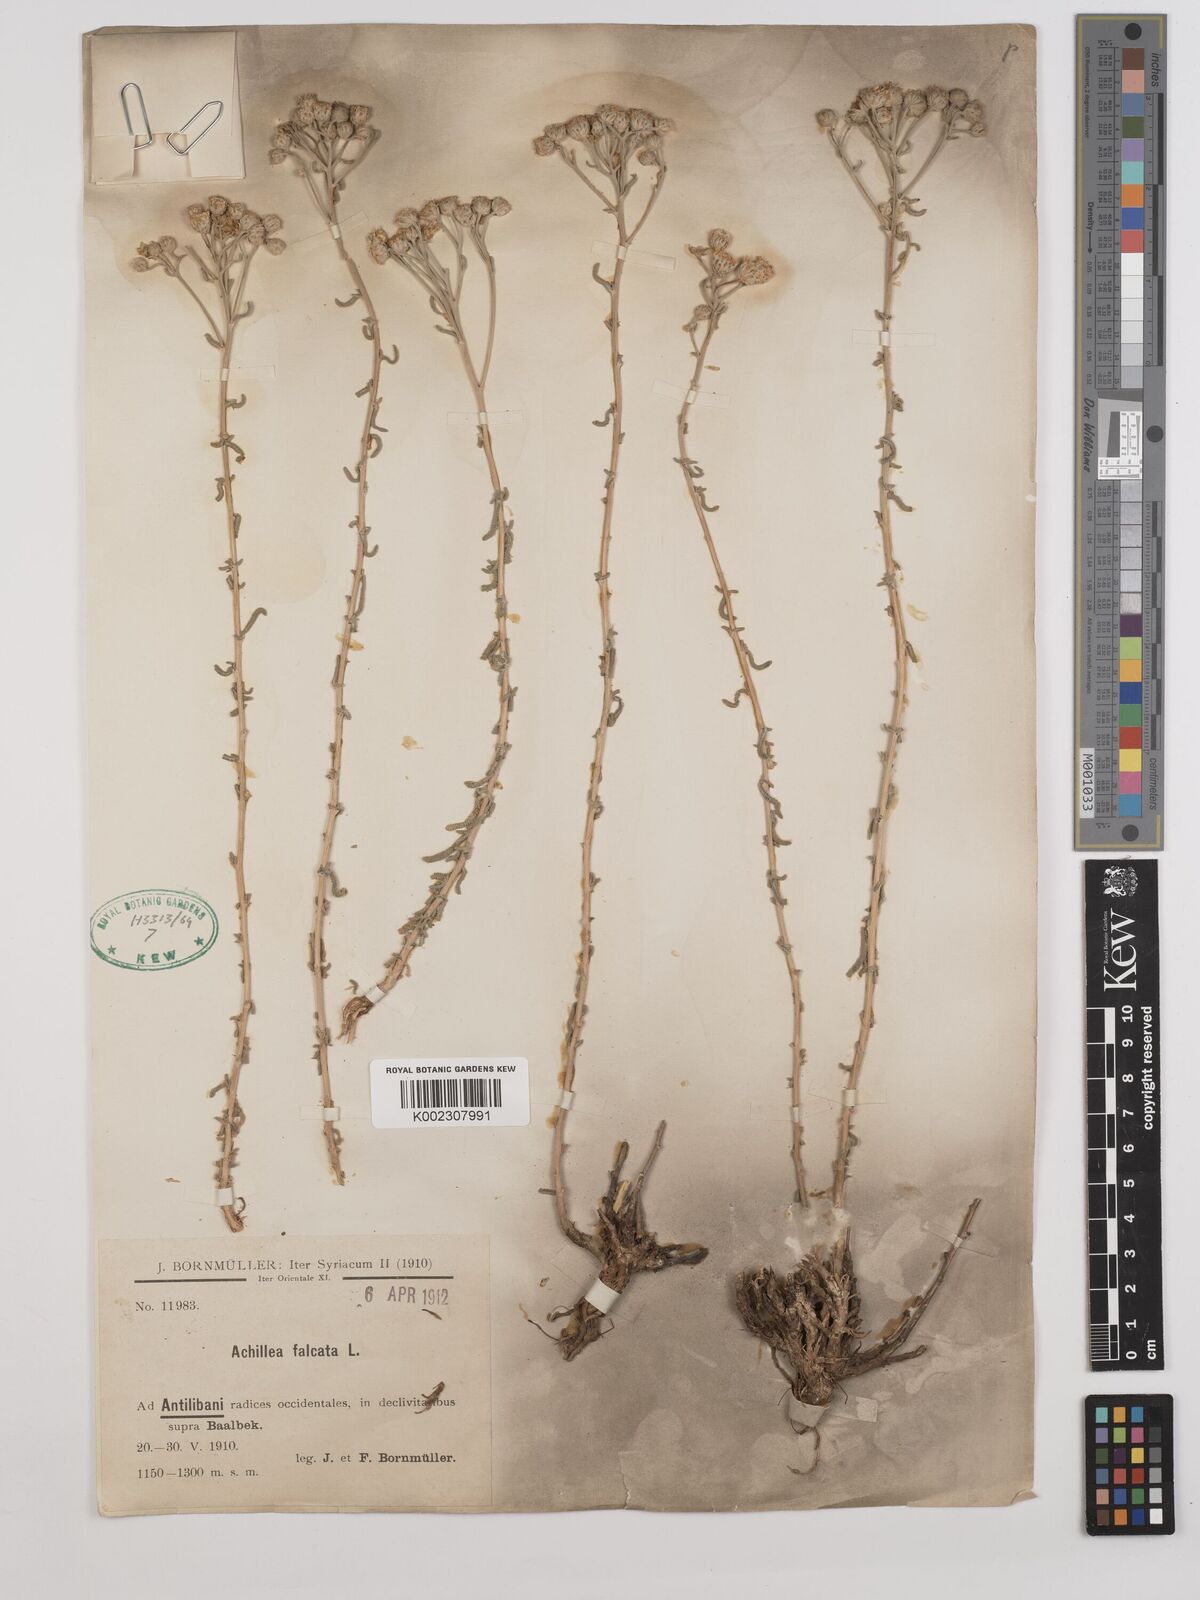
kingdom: Plantae
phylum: Tracheophyta
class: Magnoliopsida
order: Asterales
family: Asteraceae
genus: Achillea
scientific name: Achillea falcata
